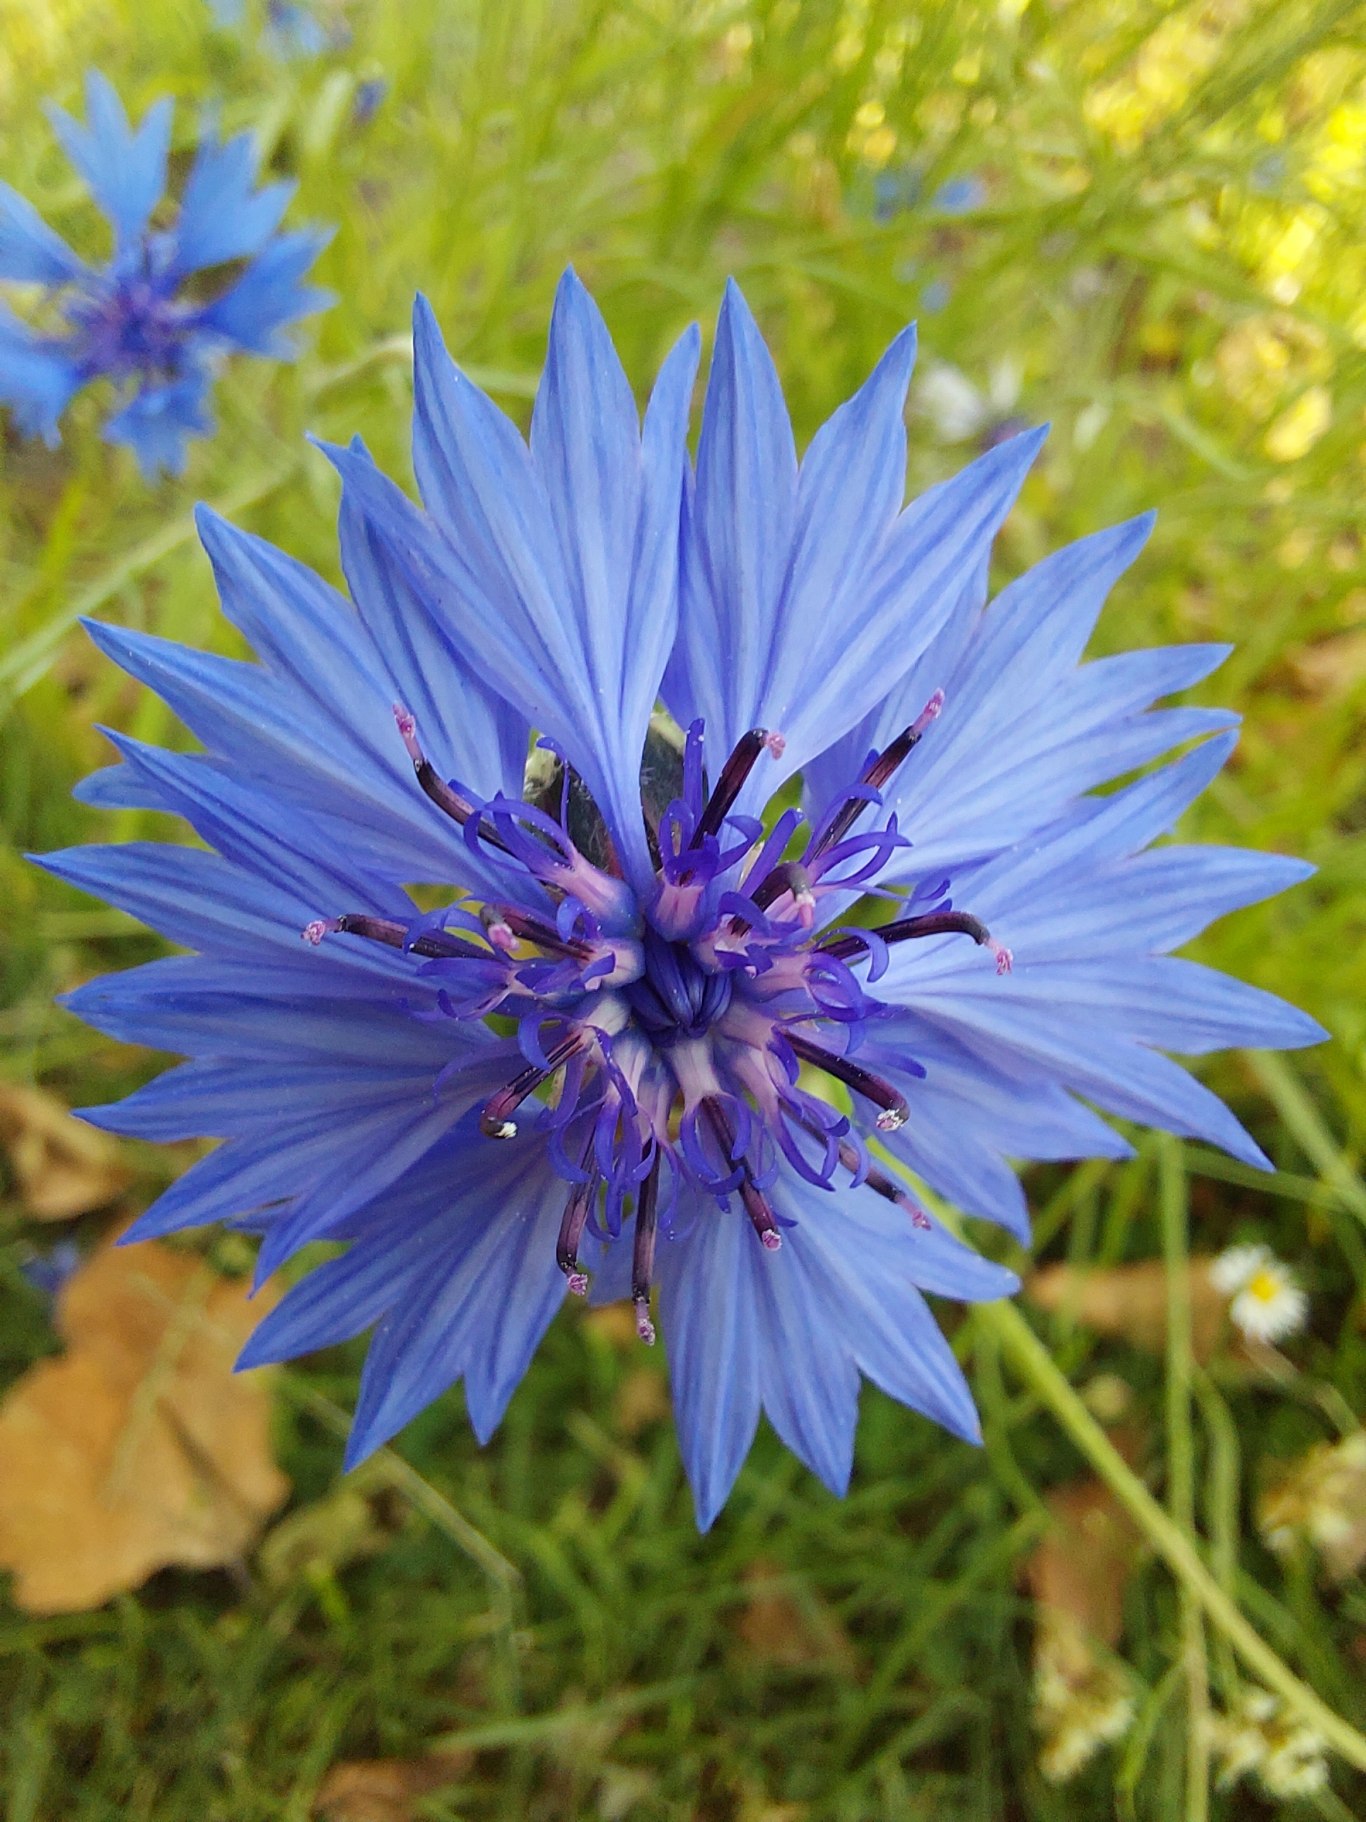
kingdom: Plantae
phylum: Tracheophyta
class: Magnoliopsida
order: Asterales
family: Asteraceae
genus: Centaurea
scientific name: Centaurea cyanus
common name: Kornblomst
